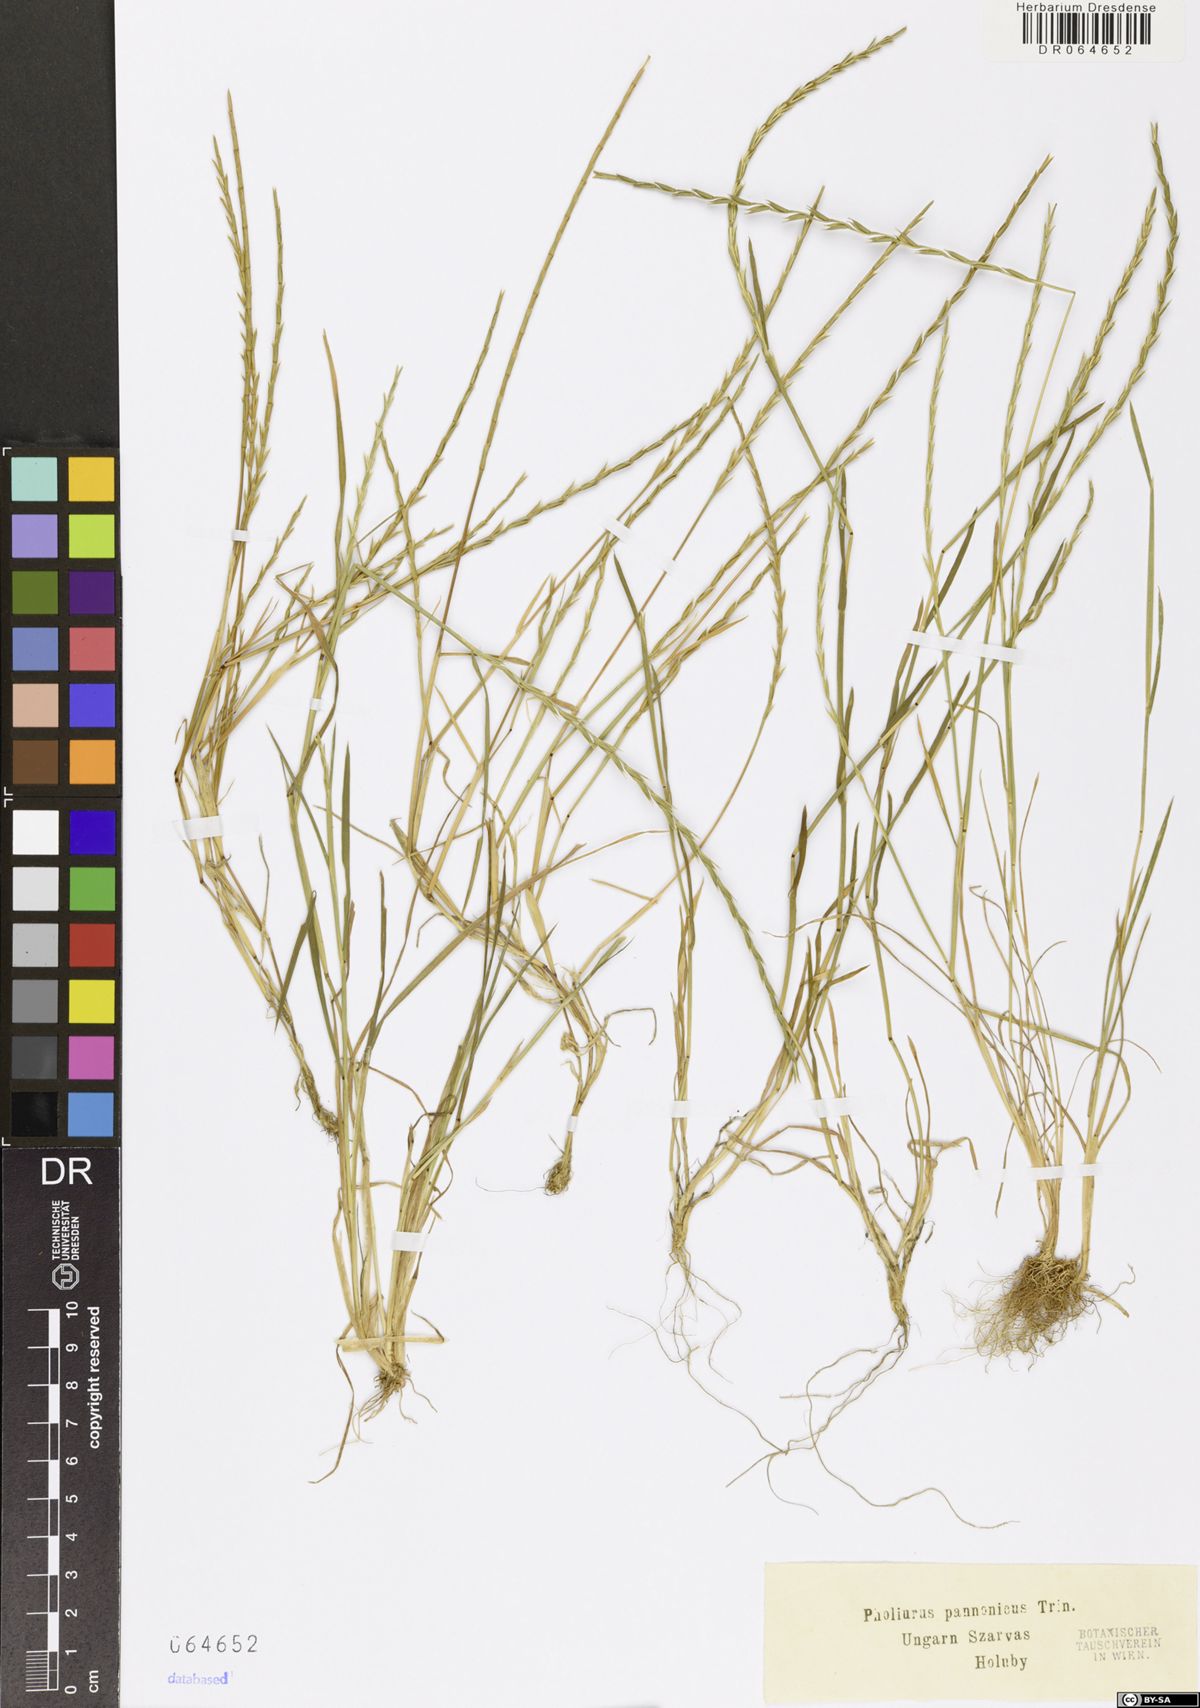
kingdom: Plantae
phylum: Tracheophyta
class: Liliopsida
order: Poales
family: Poaceae
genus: Pholiurus
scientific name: Pholiurus pannonicus
